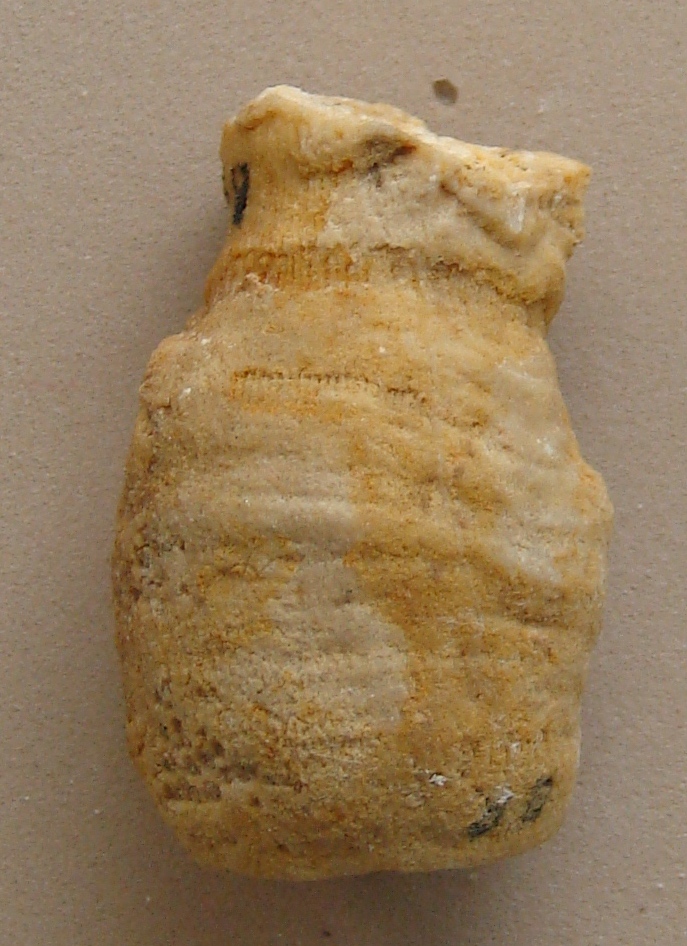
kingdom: Animalia
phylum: Cnidaria
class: Anthozoa
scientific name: Anthozoa
